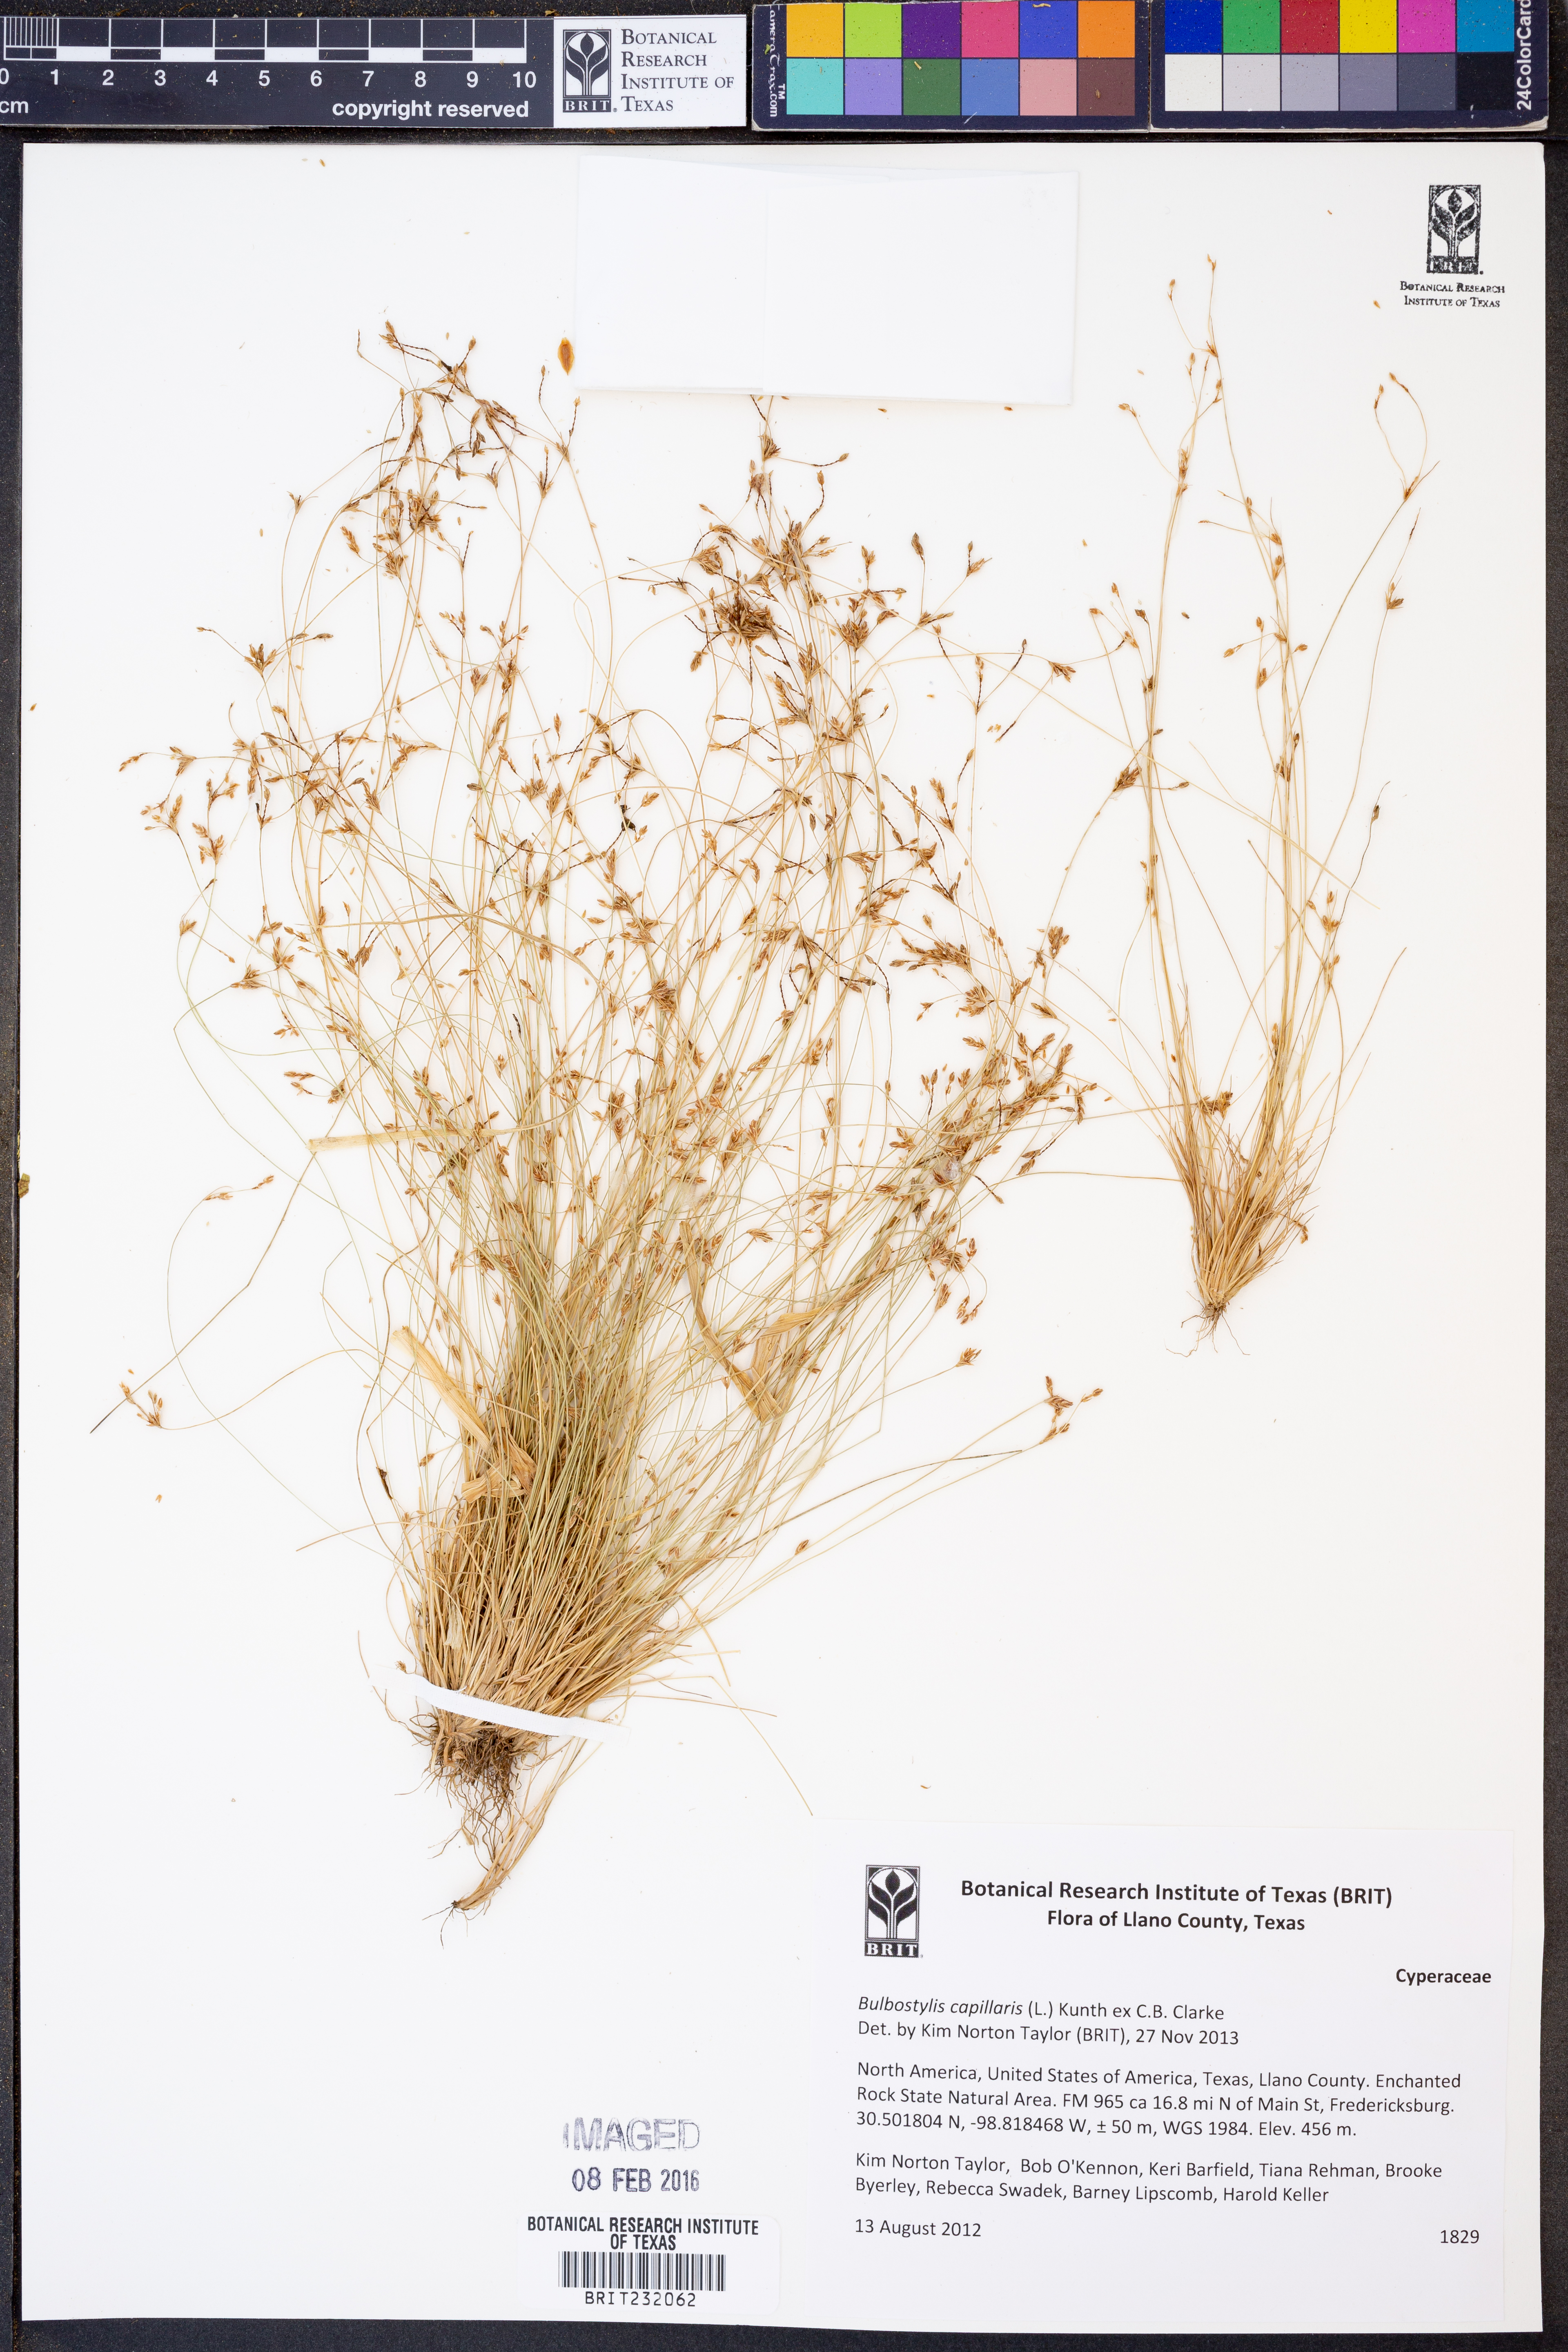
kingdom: Plantae
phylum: Tracheophyta
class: Liliopsida
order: Poales
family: Cyperaceae
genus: Bulbostylis
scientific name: Bulbostylis capillaris
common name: Densetuft hairsedge
